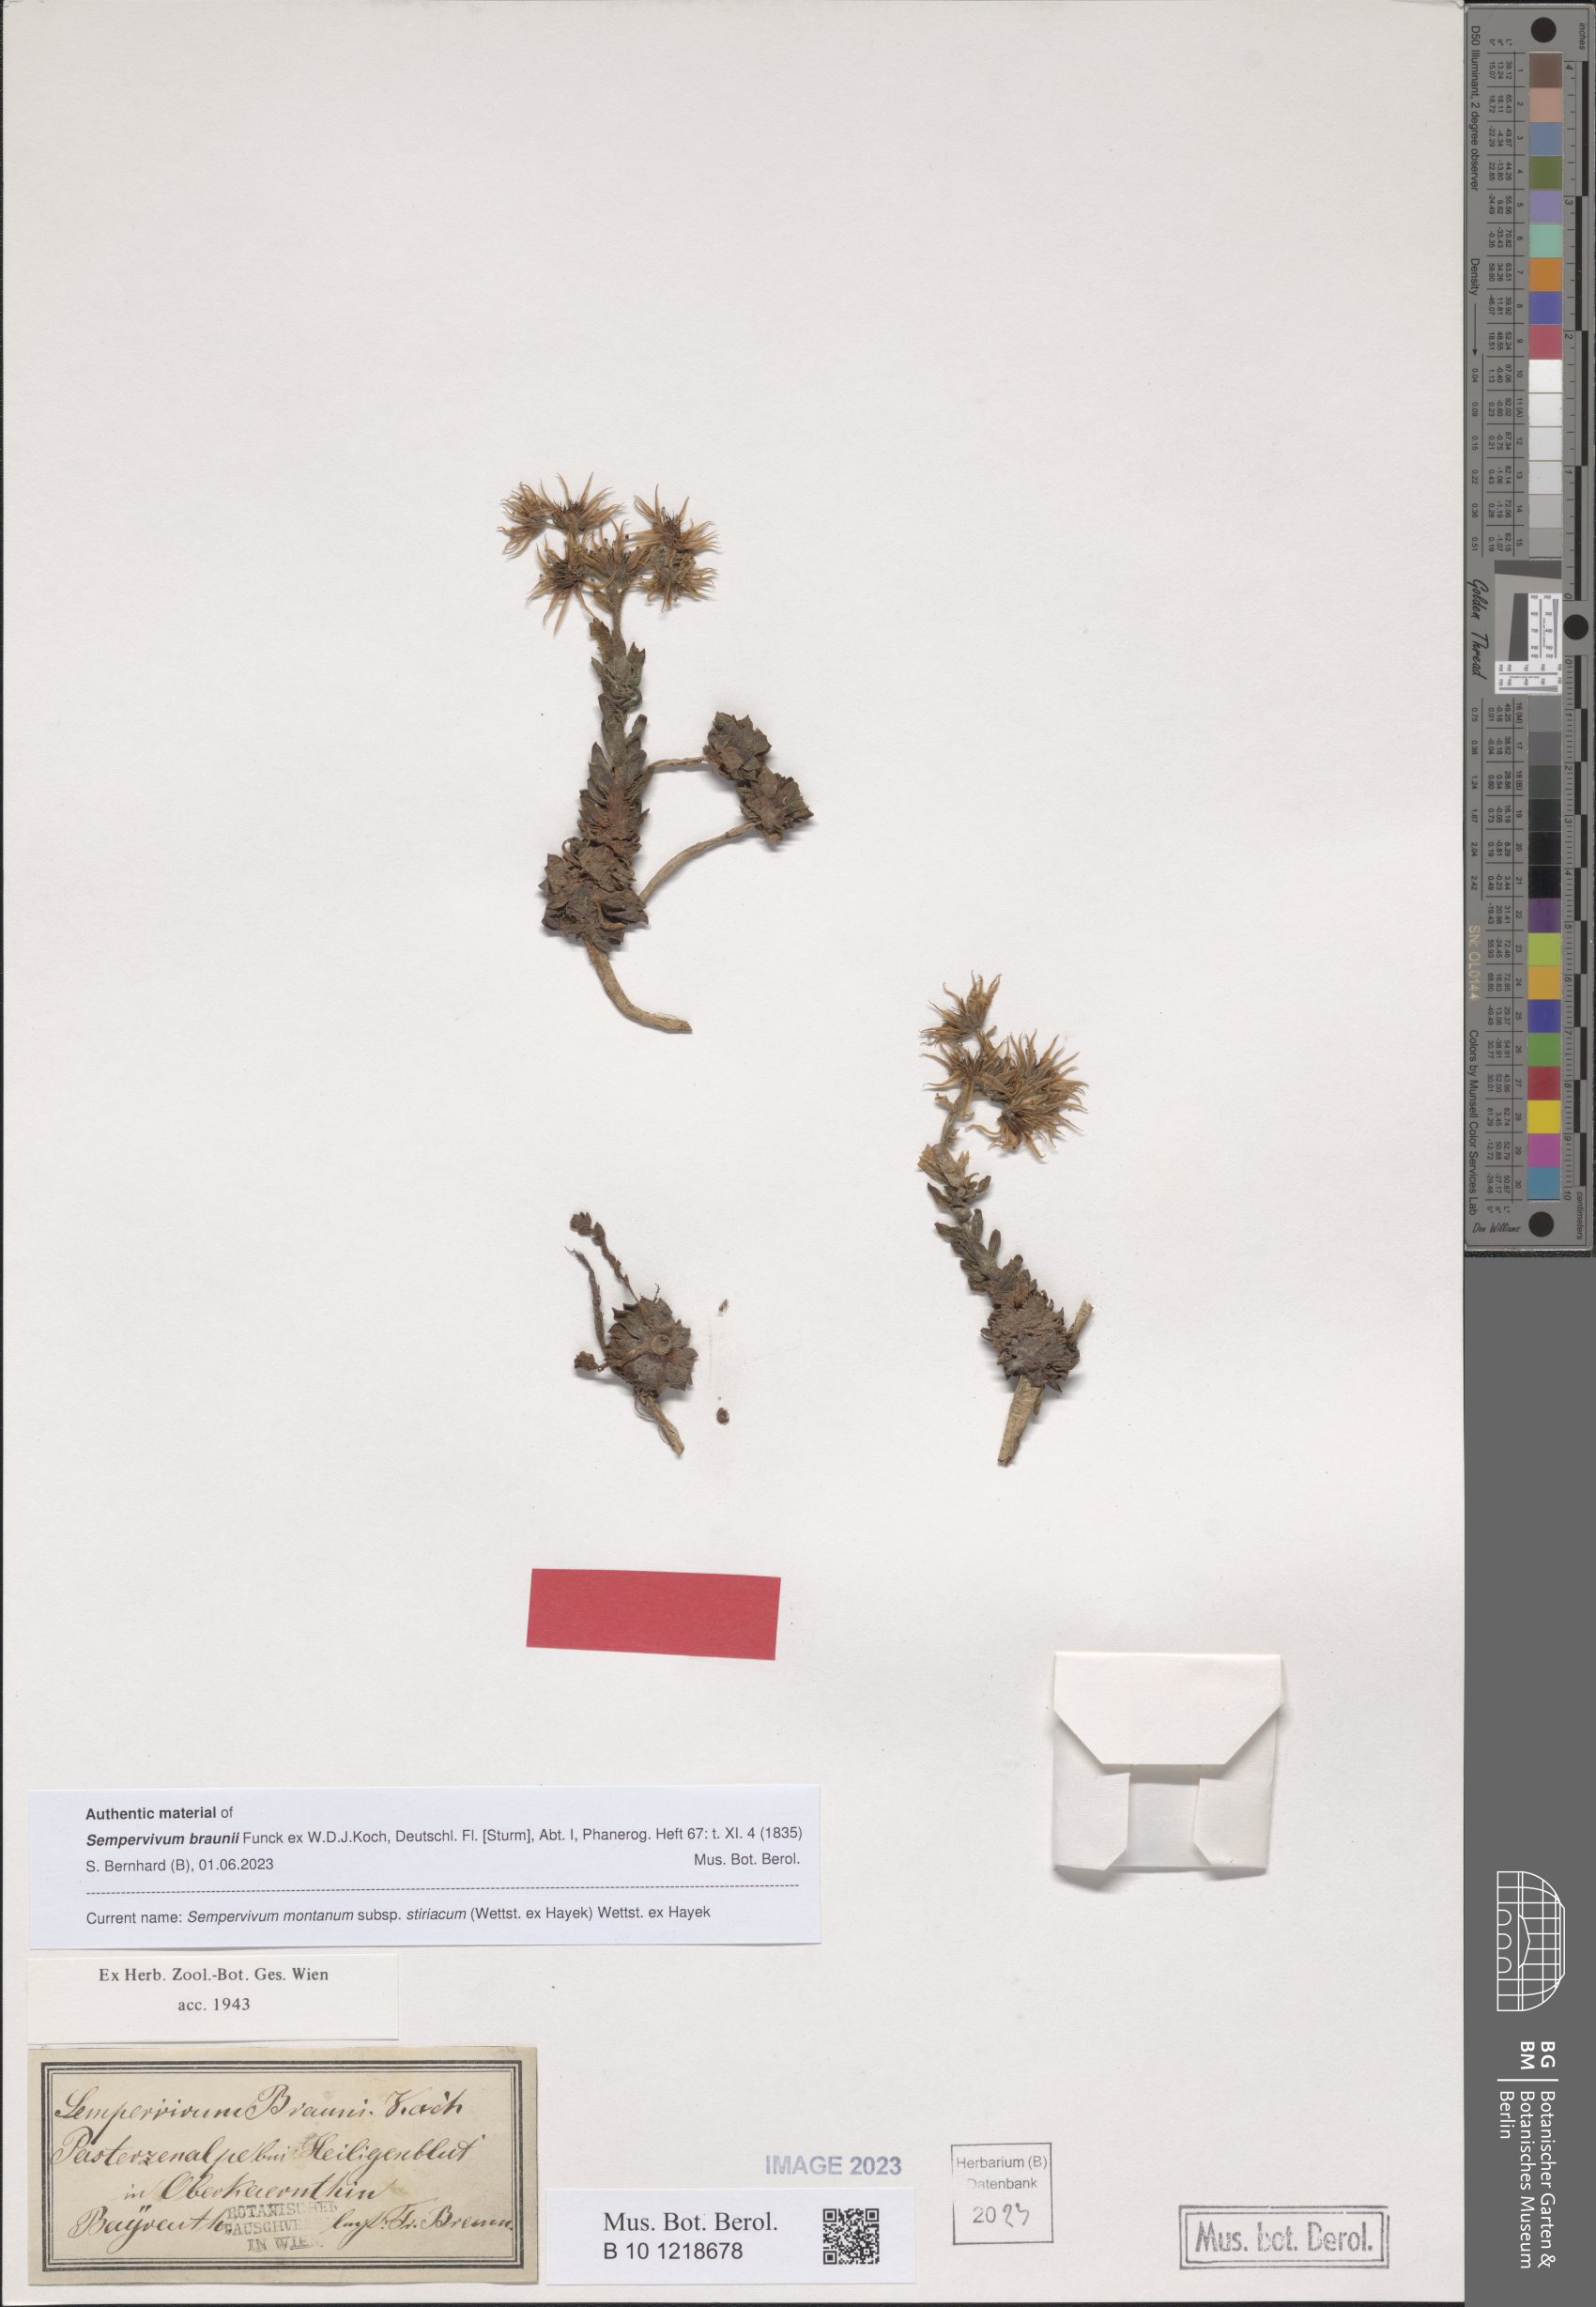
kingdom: Plantae
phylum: Tracheophyta
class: Magnoliopsida
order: Saxifragales
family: Crassulaceae
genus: Sempervivum
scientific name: Sempervivum montanum
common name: Mountain house-leek
